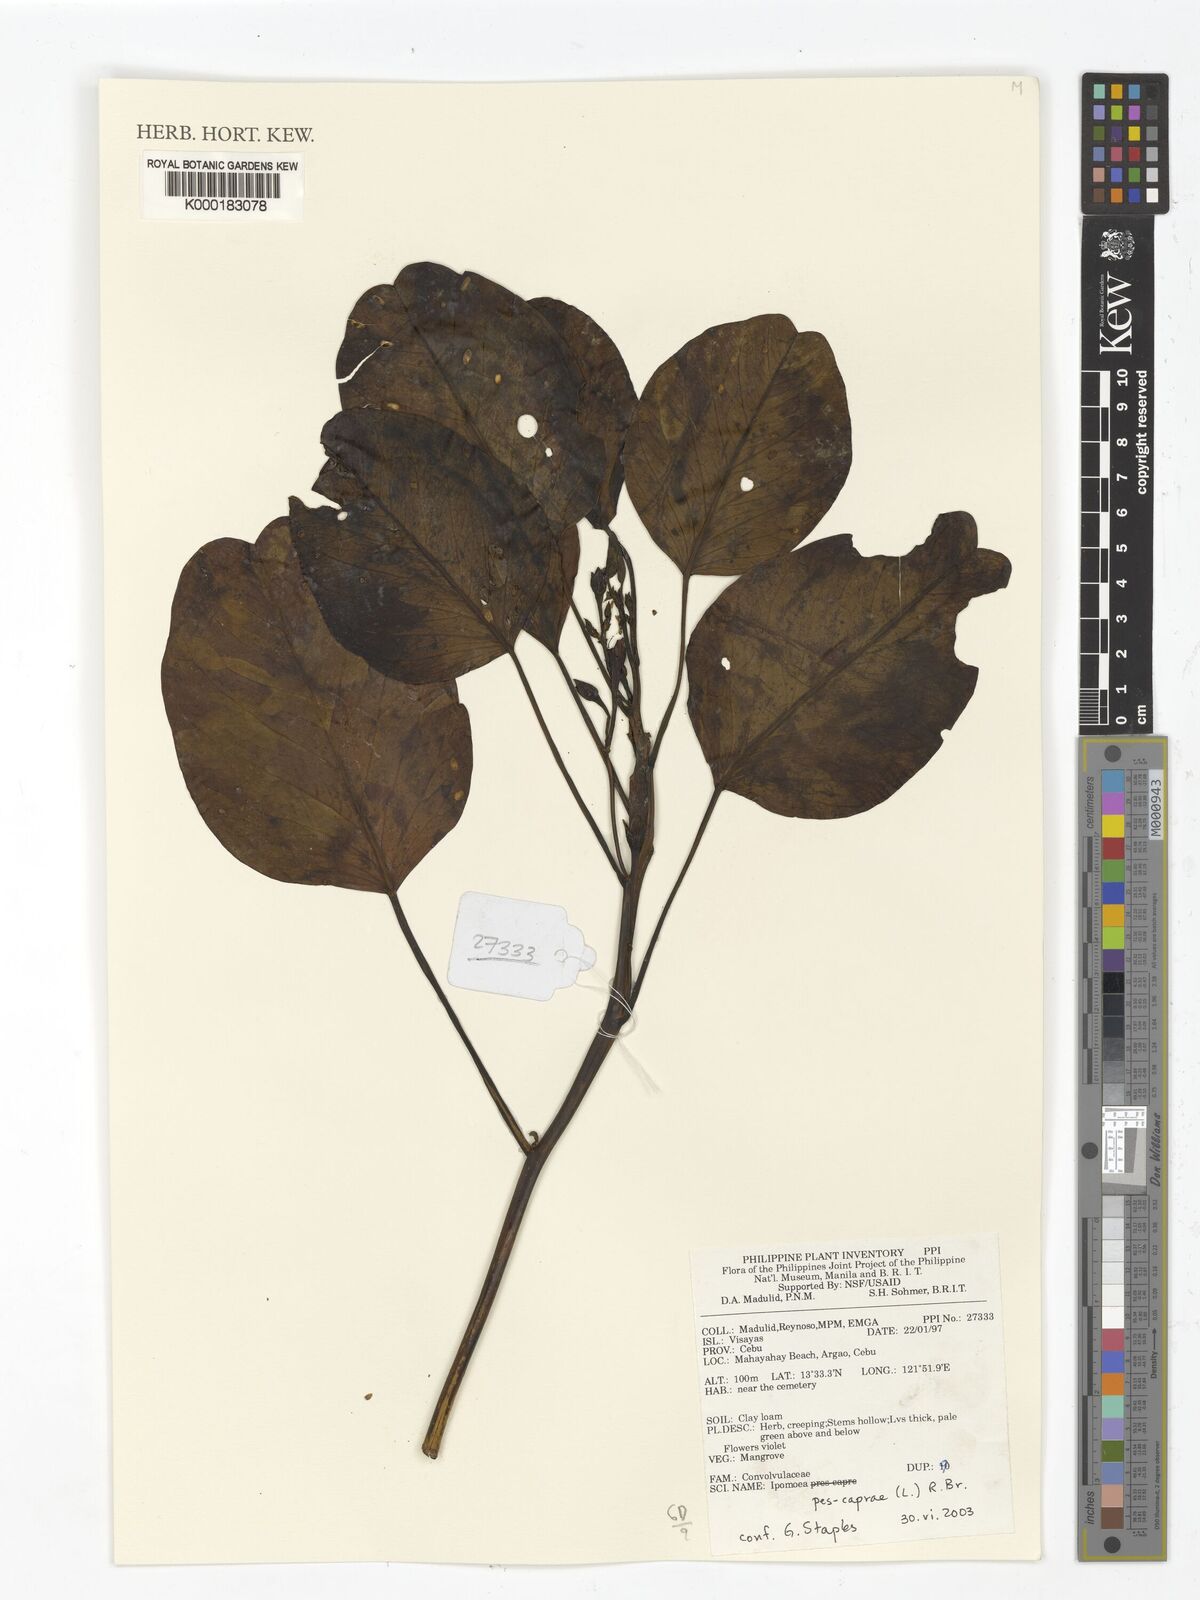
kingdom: Plantae
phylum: Tracheophyta
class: Magnoliopsida
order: Solanales
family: Convolvulaceae
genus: Ipomoea
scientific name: Ipomoea pes-caprae
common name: Beach morning glory
